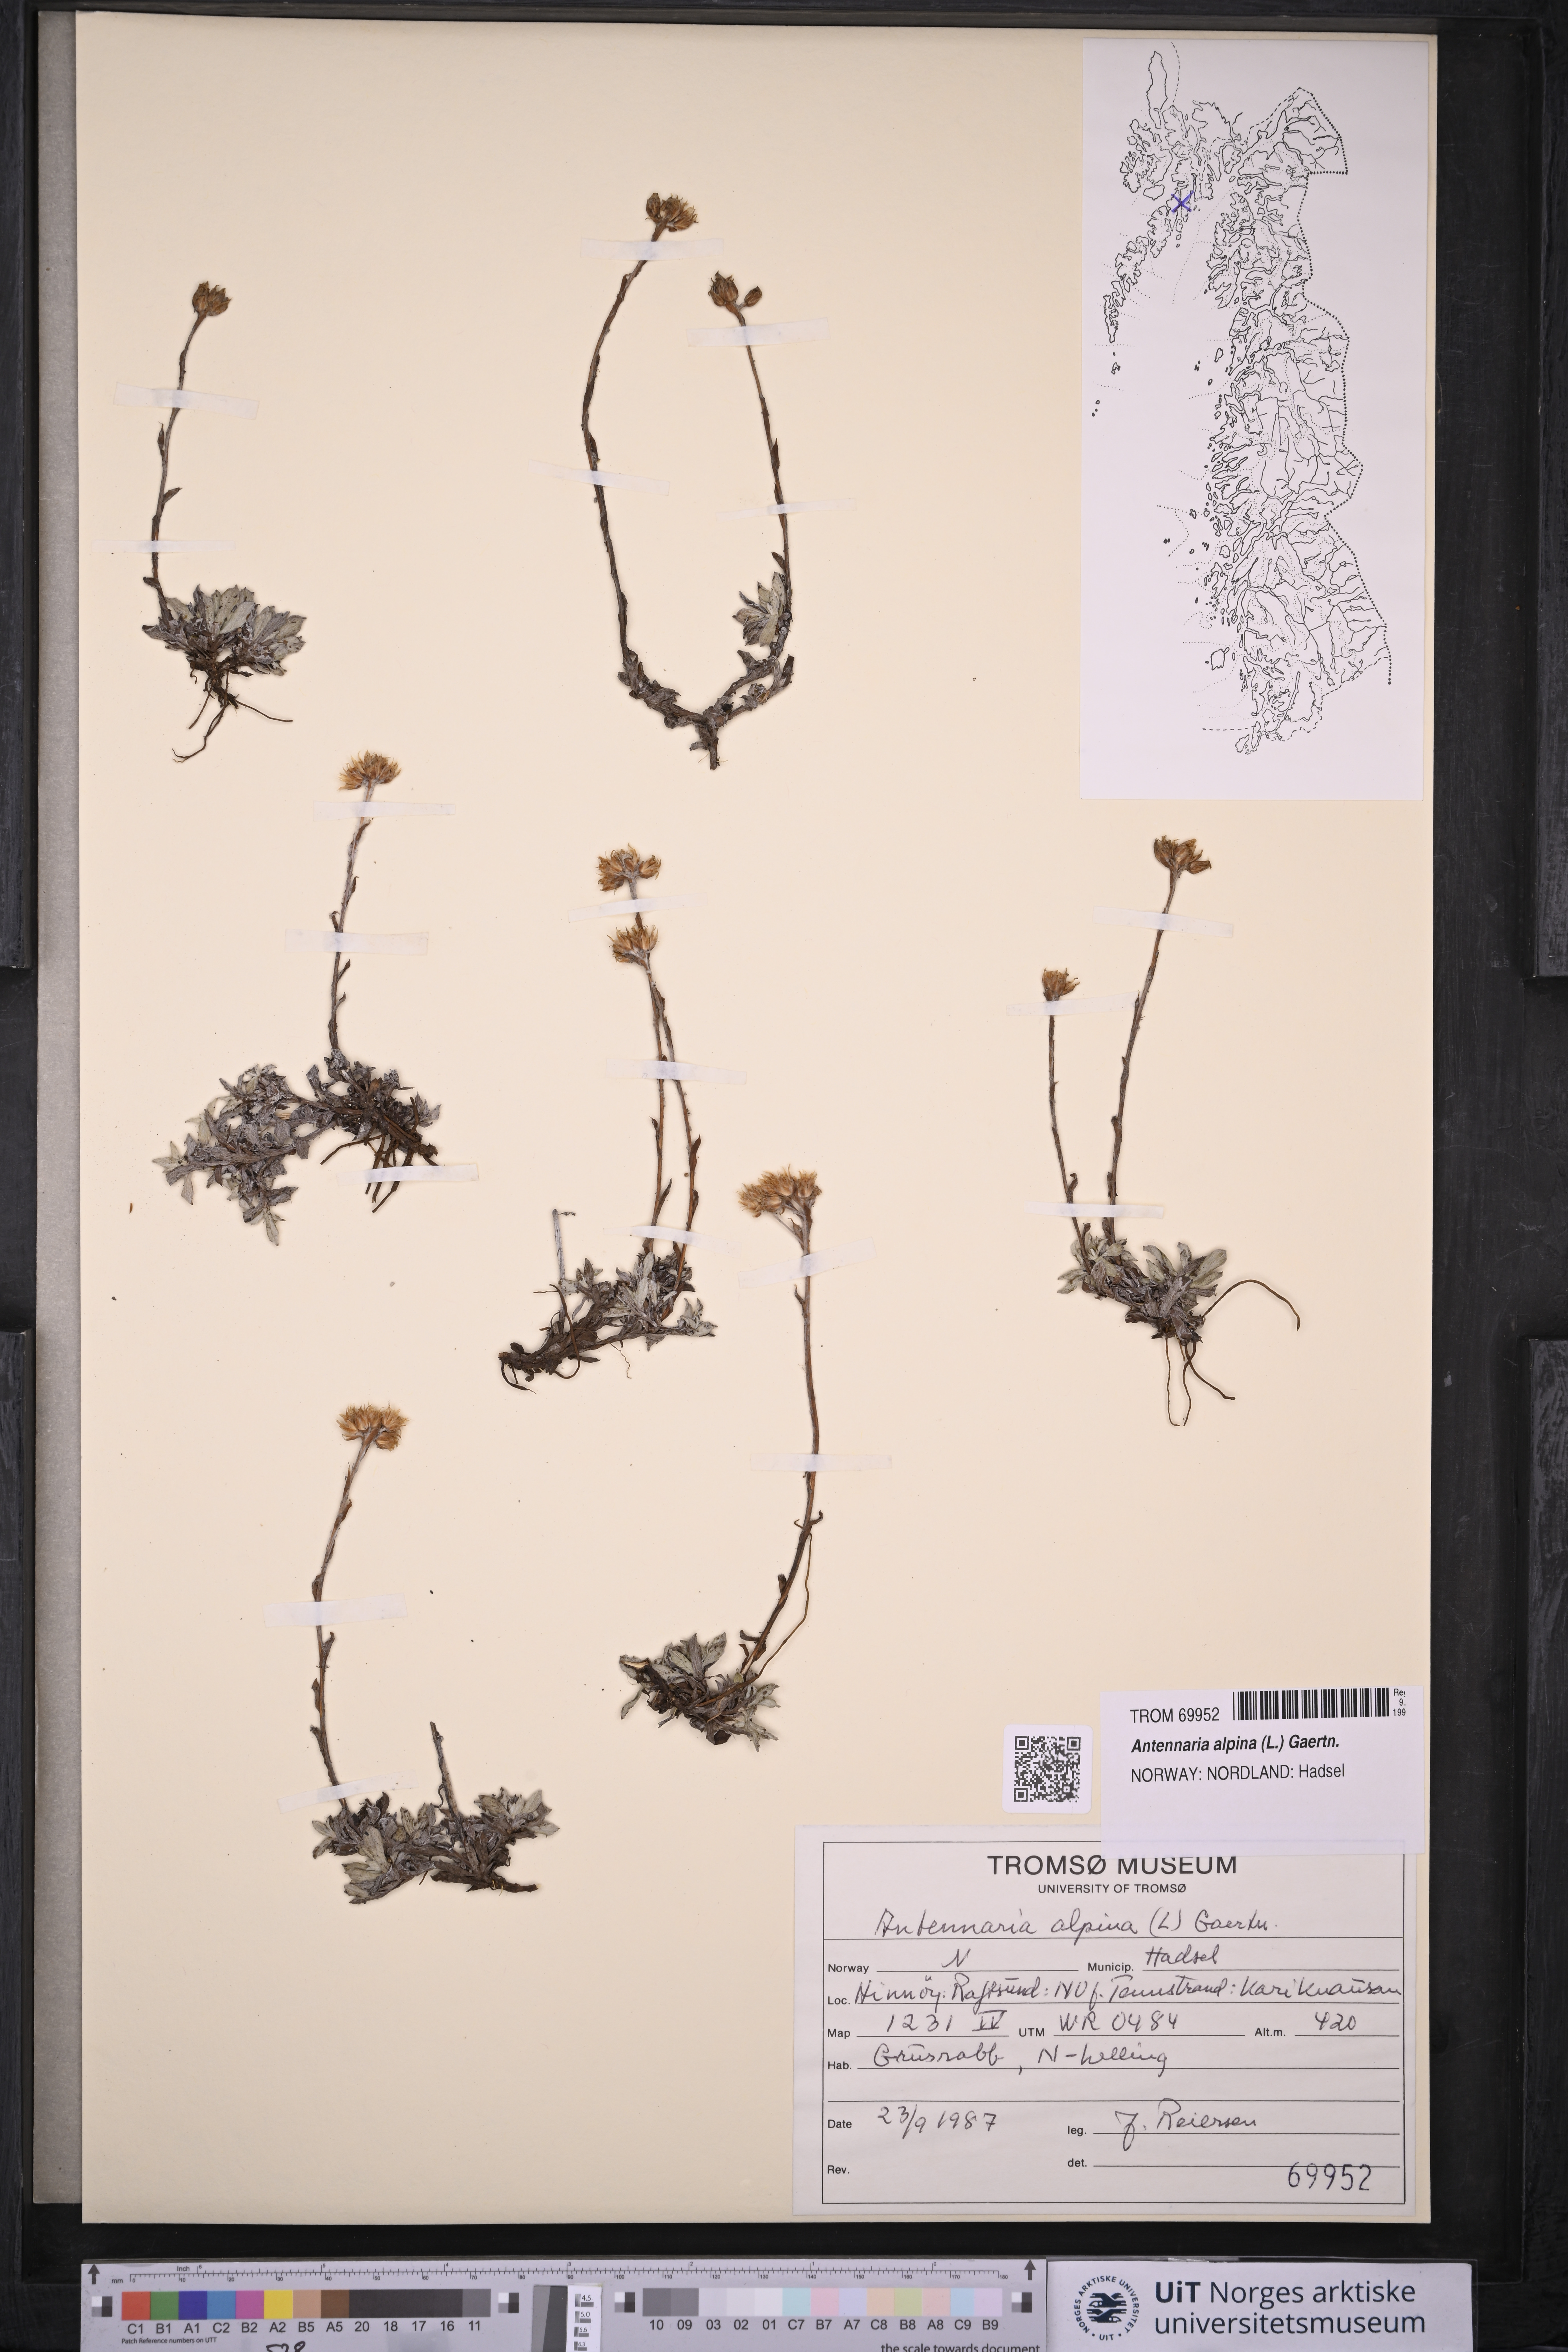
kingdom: Plantae
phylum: Tracheophyta
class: Magnoliopsida
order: Asterales
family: Asteraceae
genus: Antennaria
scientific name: Antennaria alpina
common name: Alpine pussytoes
